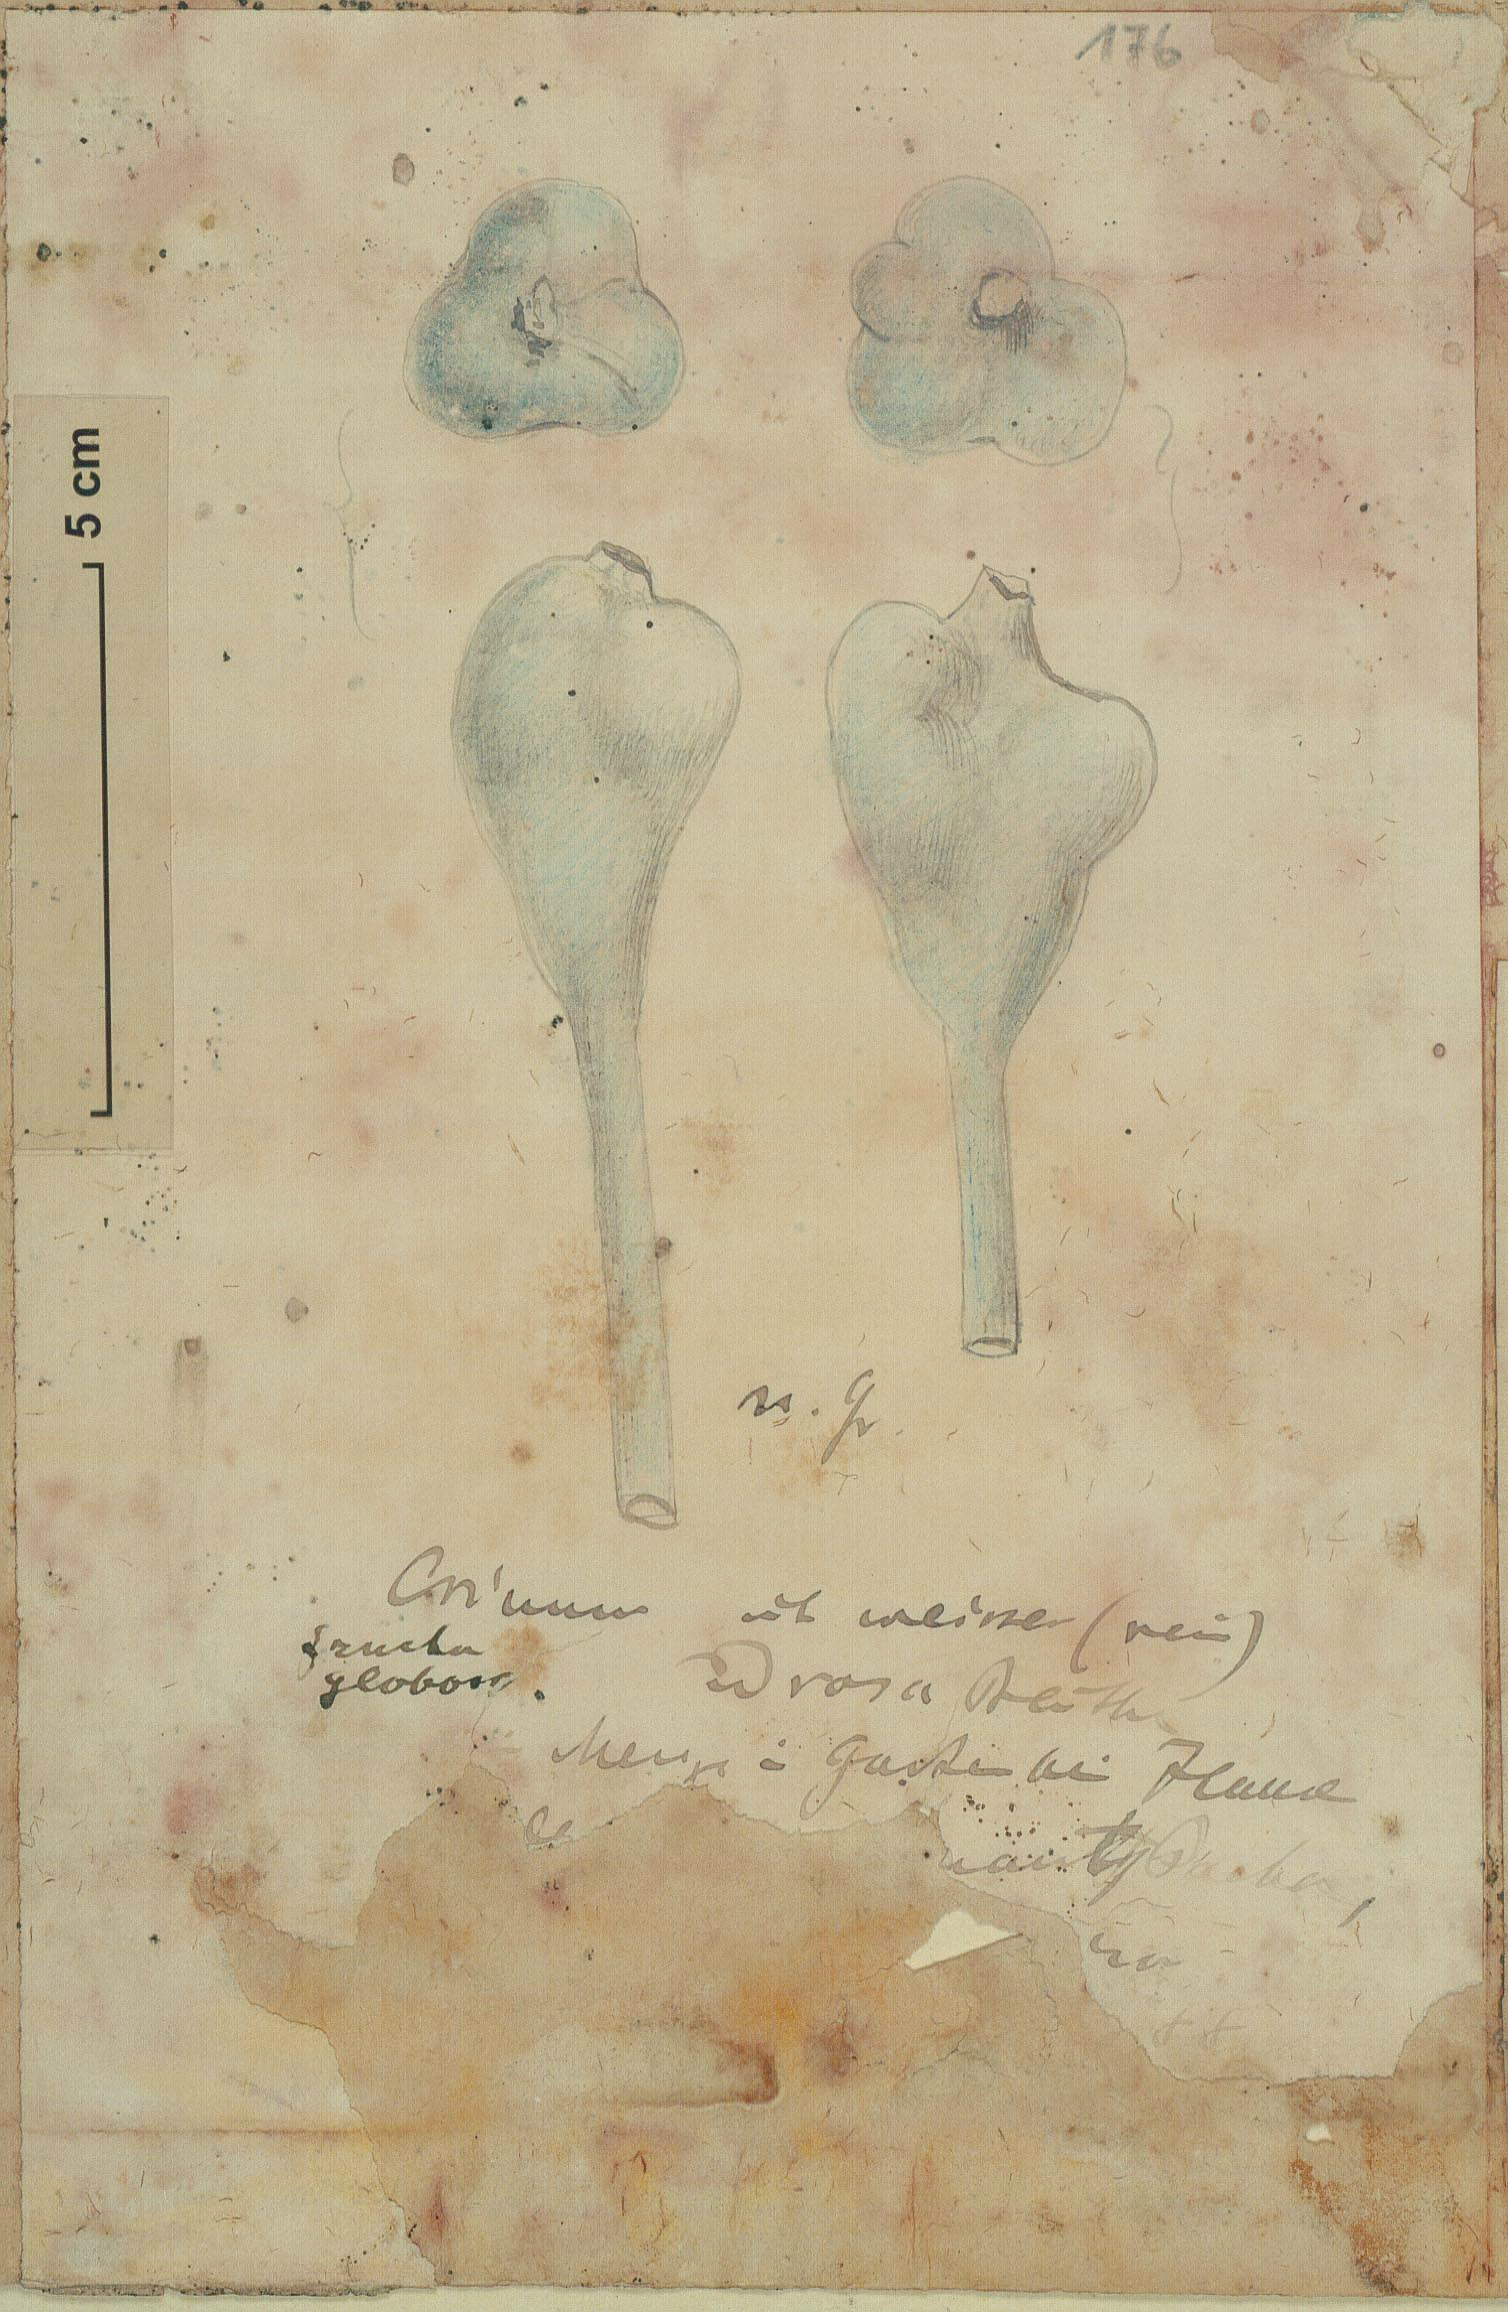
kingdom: Plantae
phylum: Tracheophyta
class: Liliopsida
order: Asparagales
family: Amaryllidaceae
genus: Crinum
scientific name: Crinum
